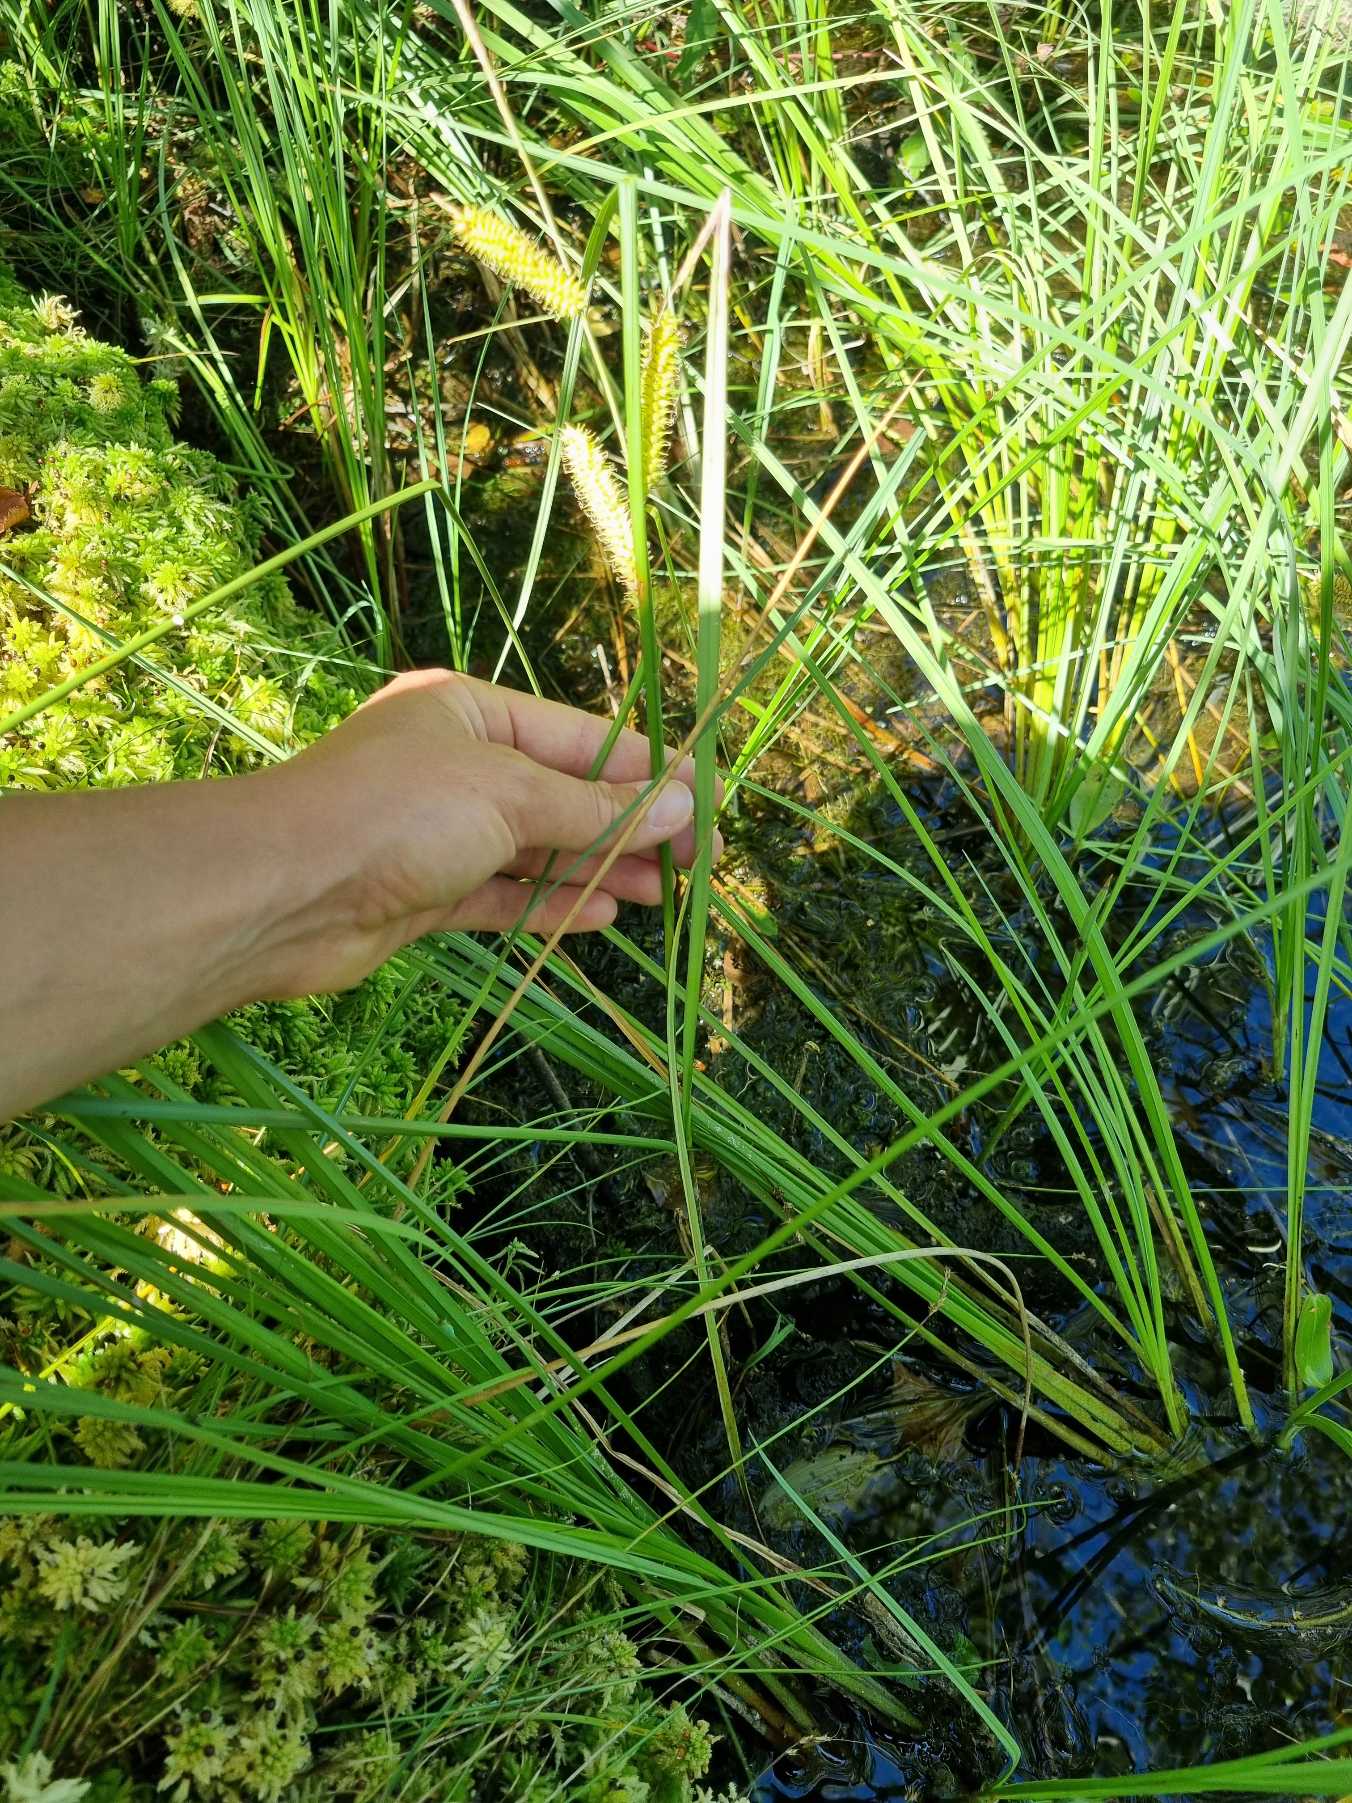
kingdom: Plantae
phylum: Tracheophyta
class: Liliopsida
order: Poales
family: Cyperaceae
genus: Carex
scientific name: Carex rostrata
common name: Næb-star
